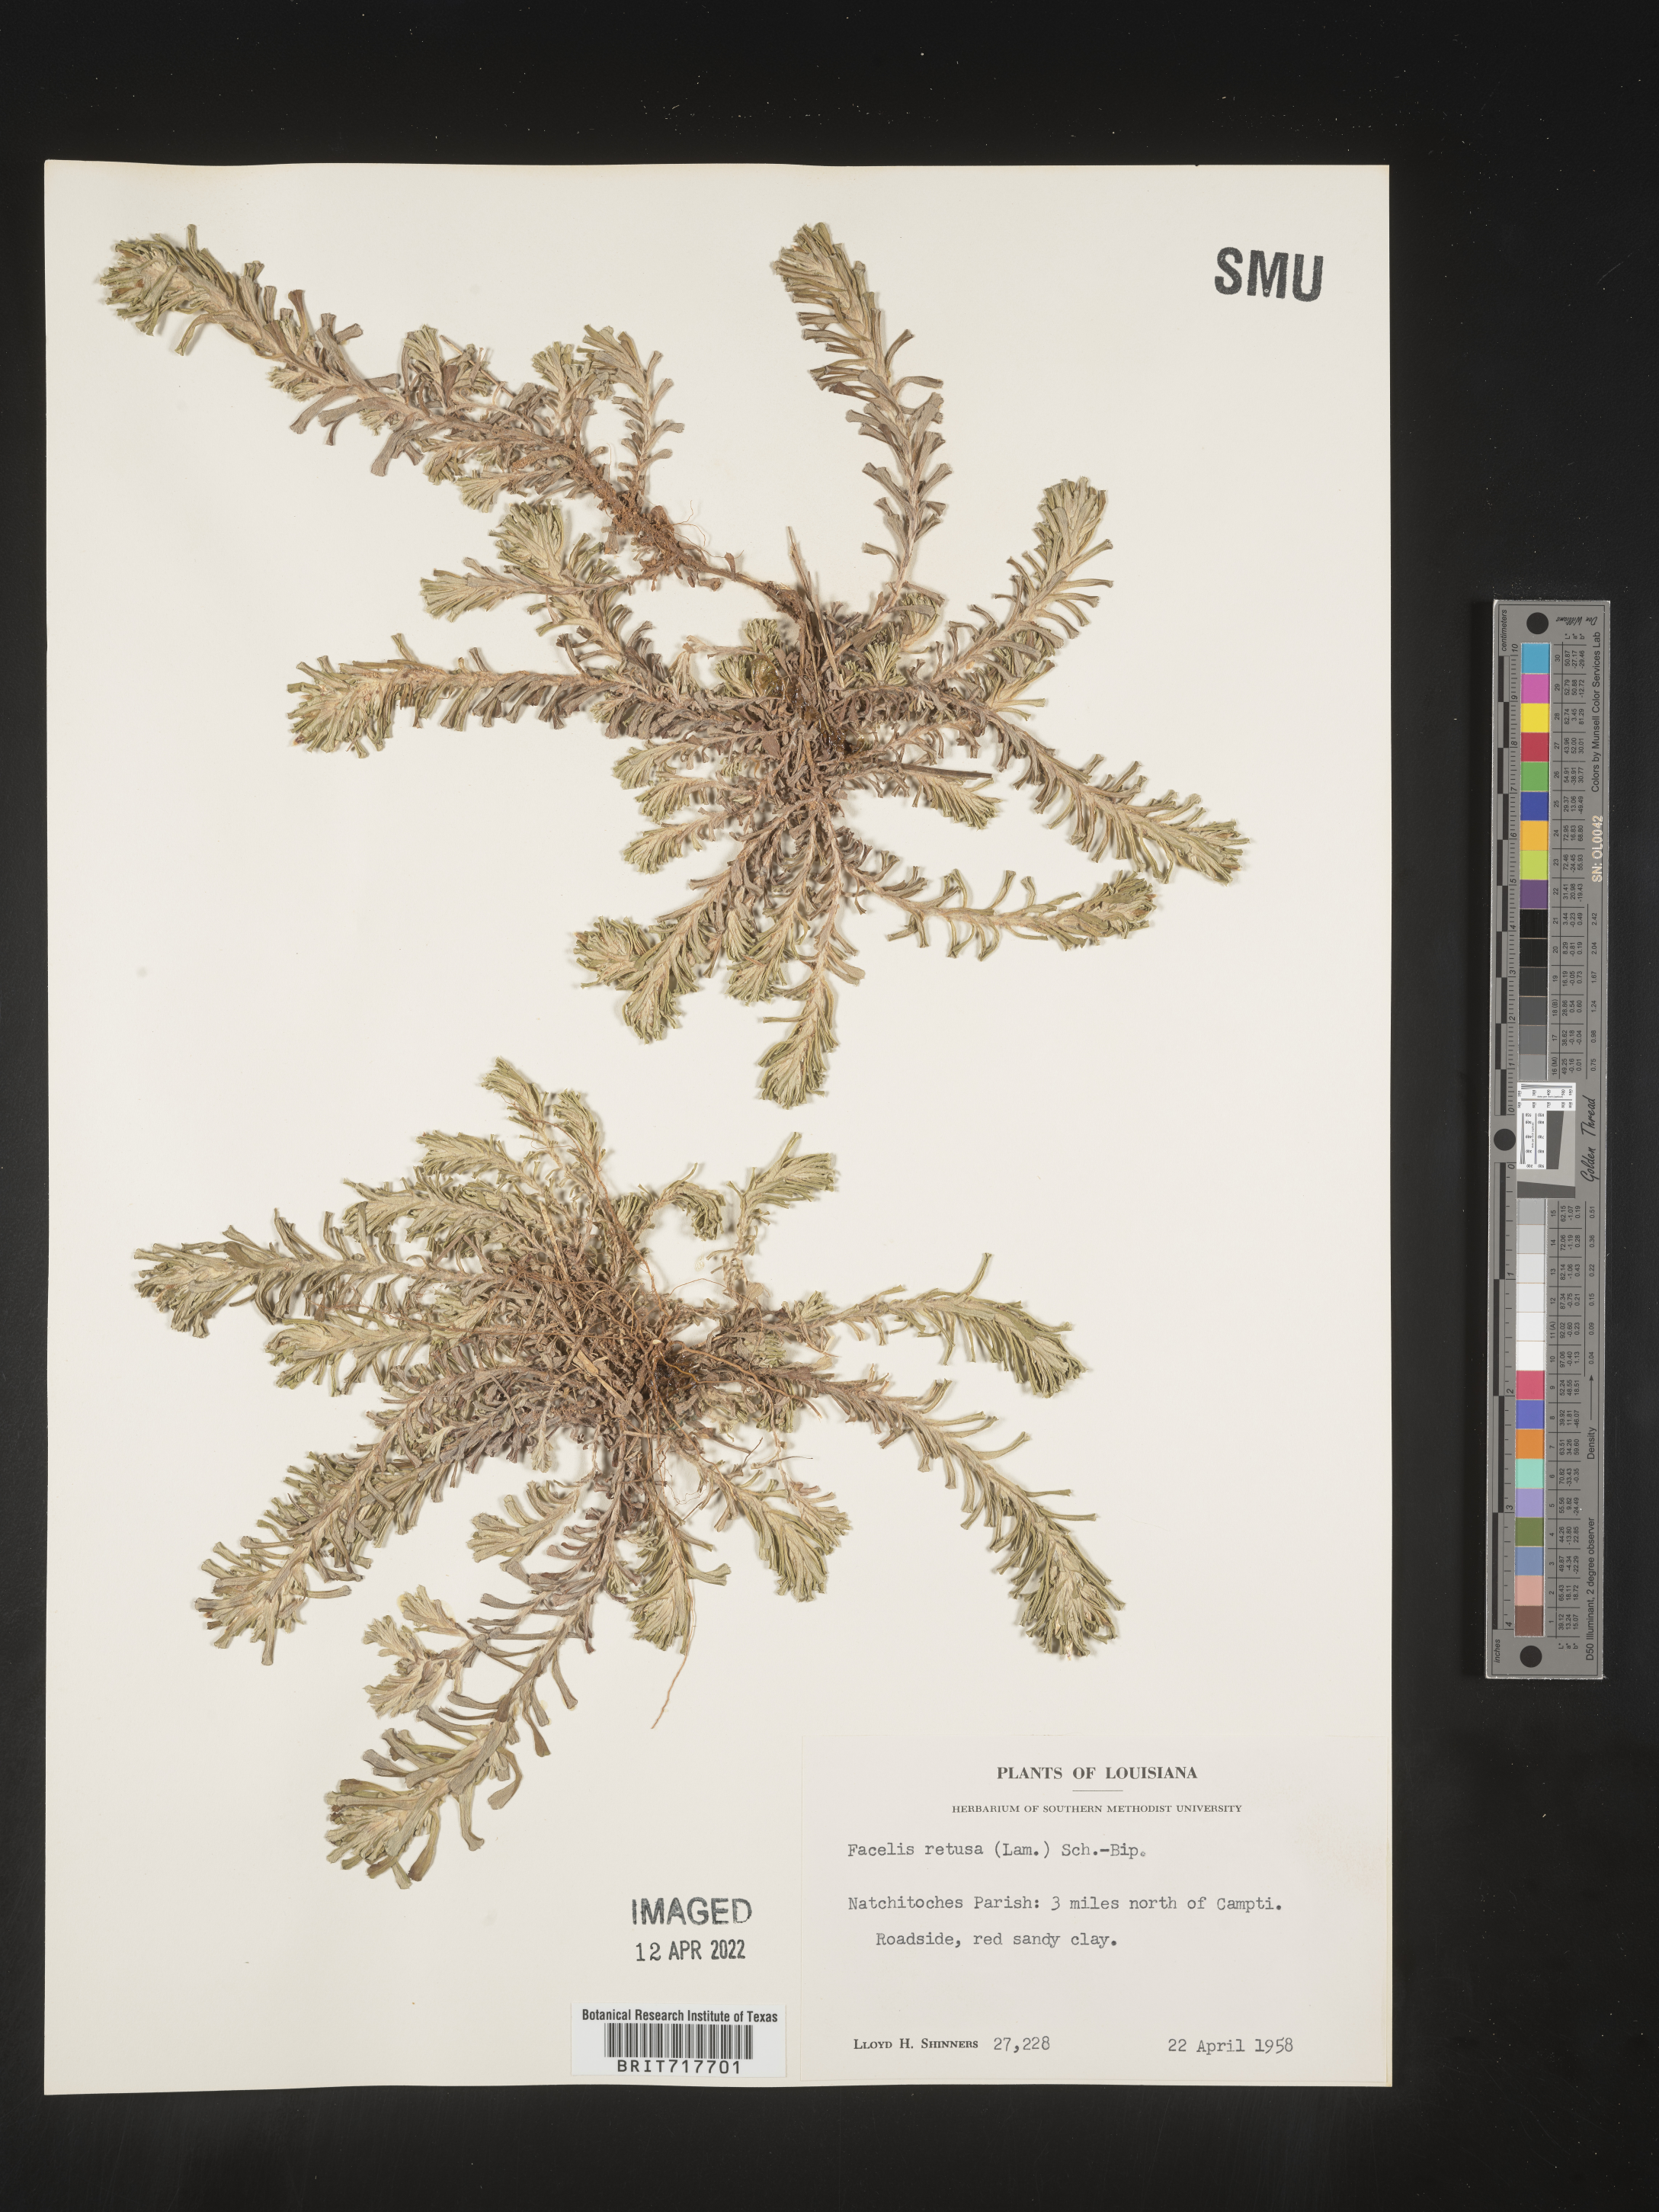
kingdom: Plantae
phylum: Tracheophyta
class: Magnoliopsida
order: Asterales
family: Asteraceae
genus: Facelis
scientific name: Facelis retusa
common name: Annual trampweed
